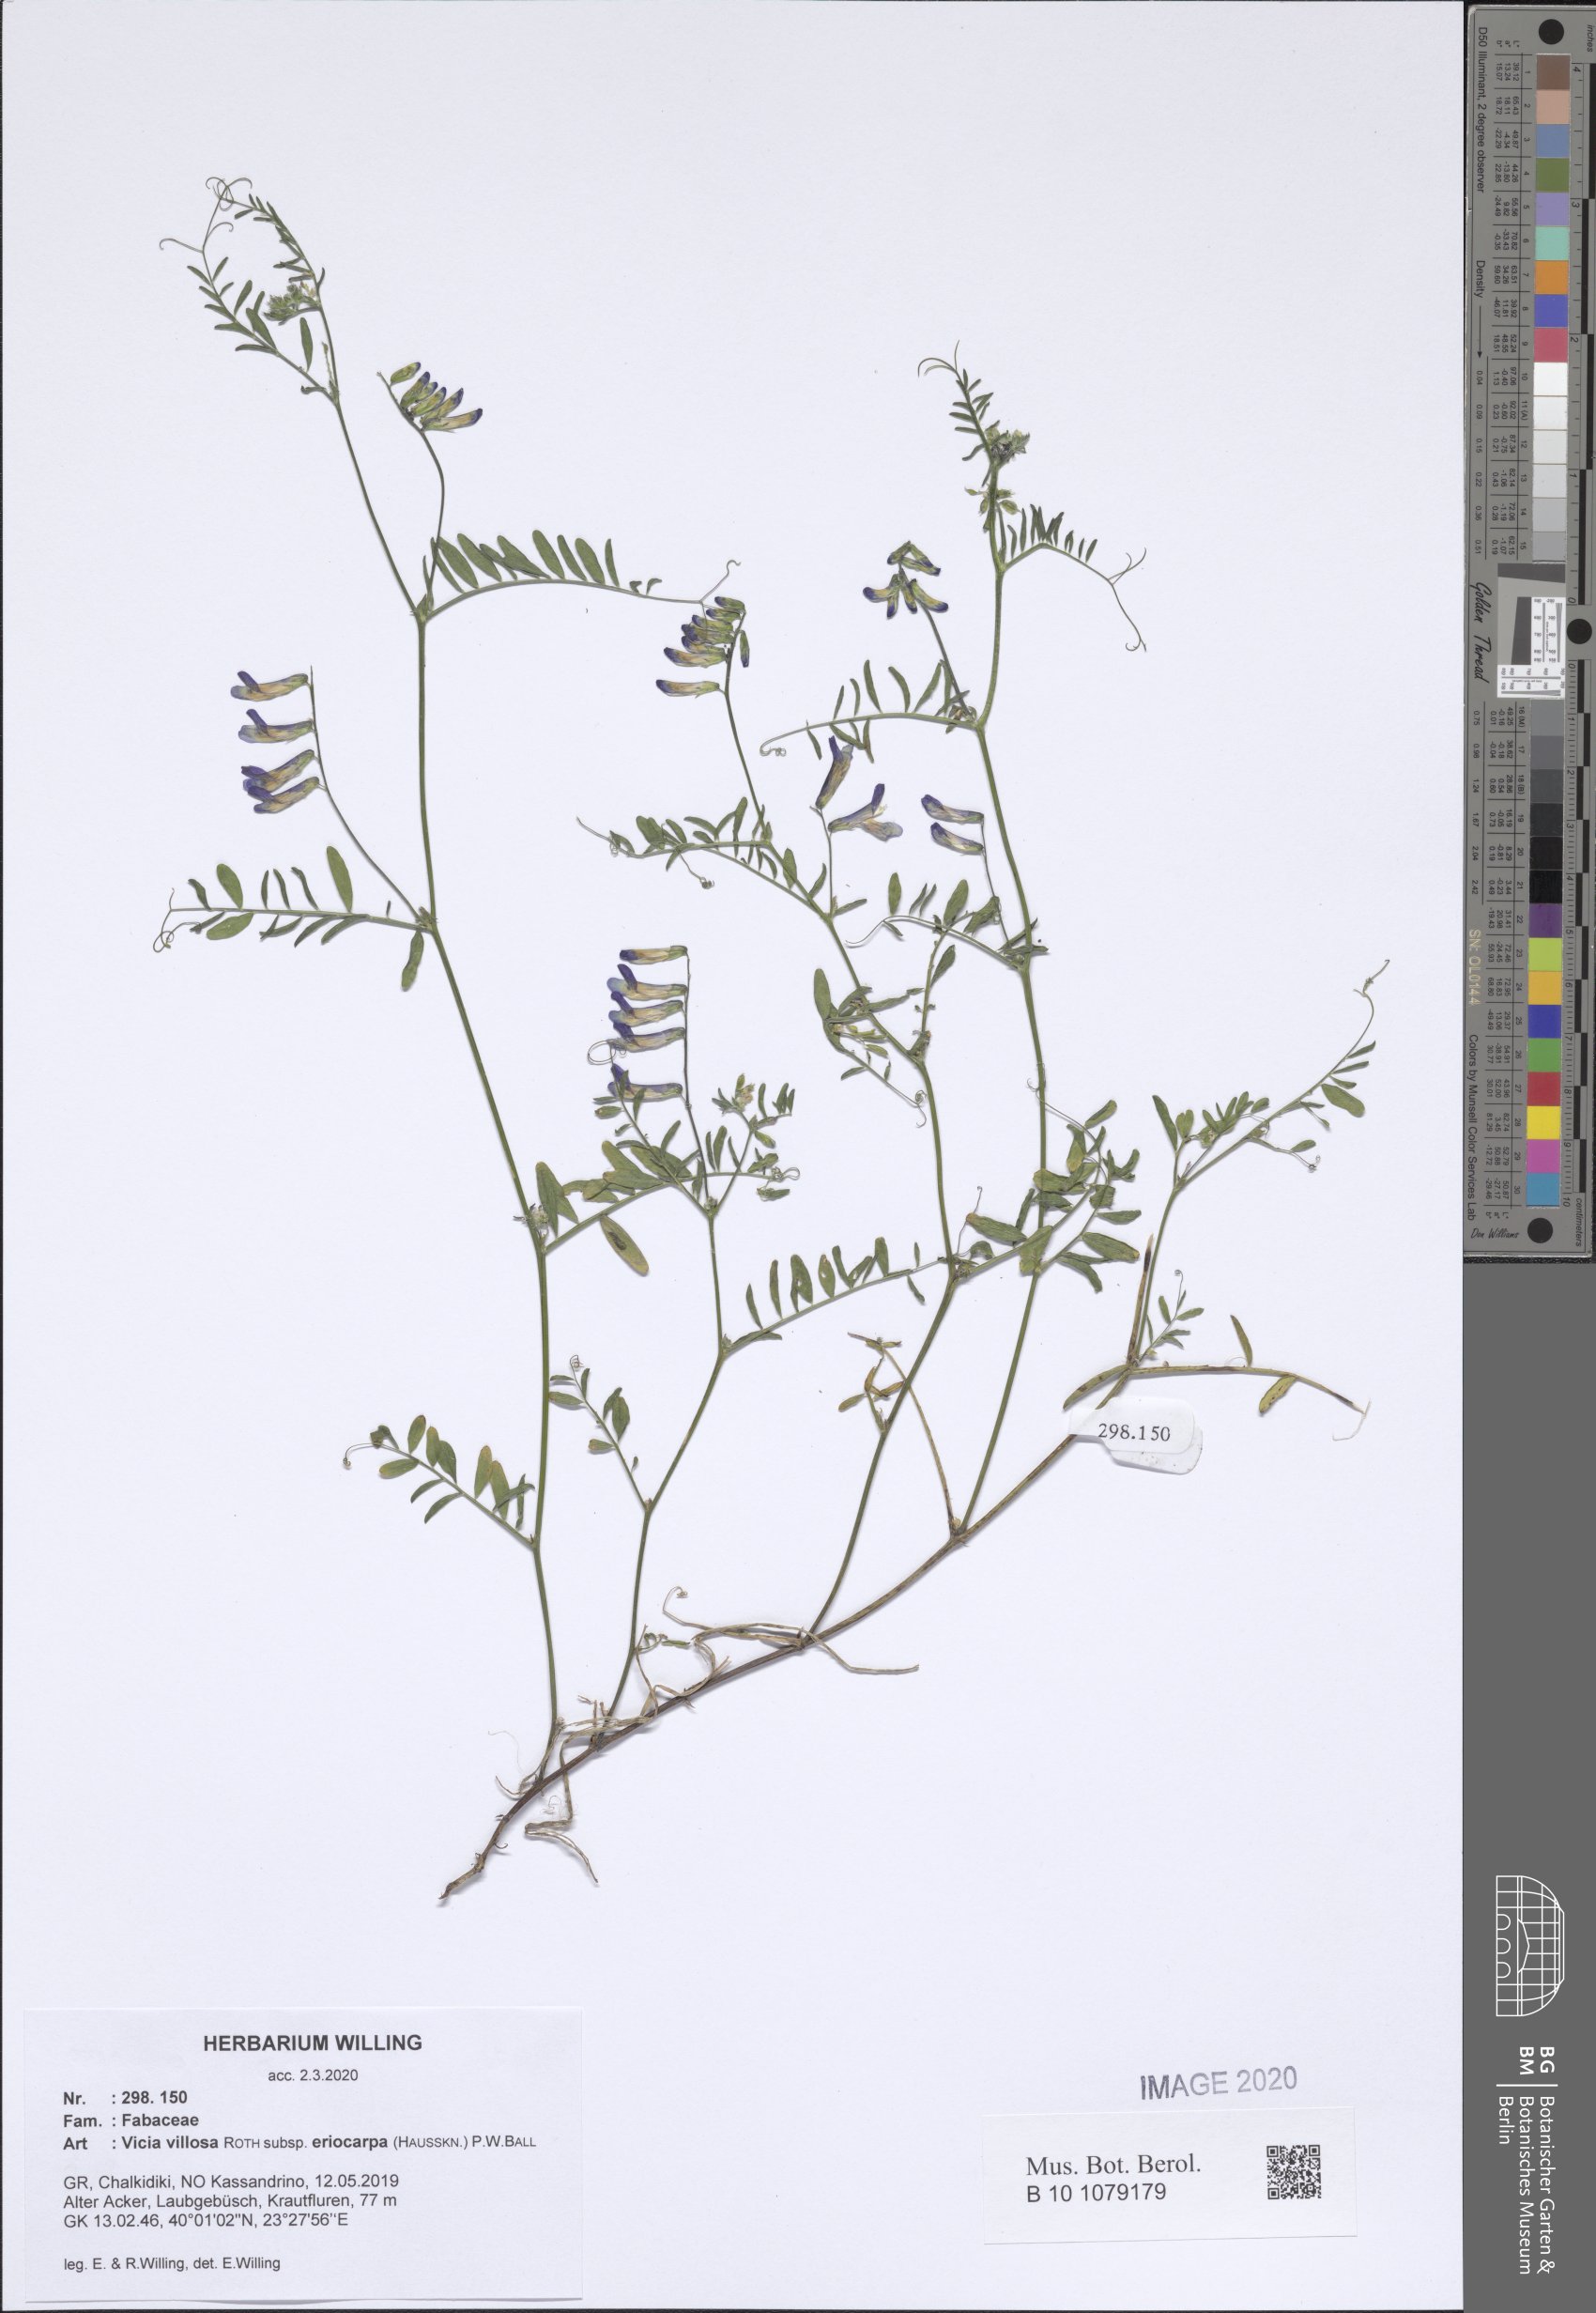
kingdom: Plantae
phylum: Tracheophyta
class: Magnoliopsida
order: Fabales
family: Fabaceae
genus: Vicia
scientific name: Vicia eriocarpa
